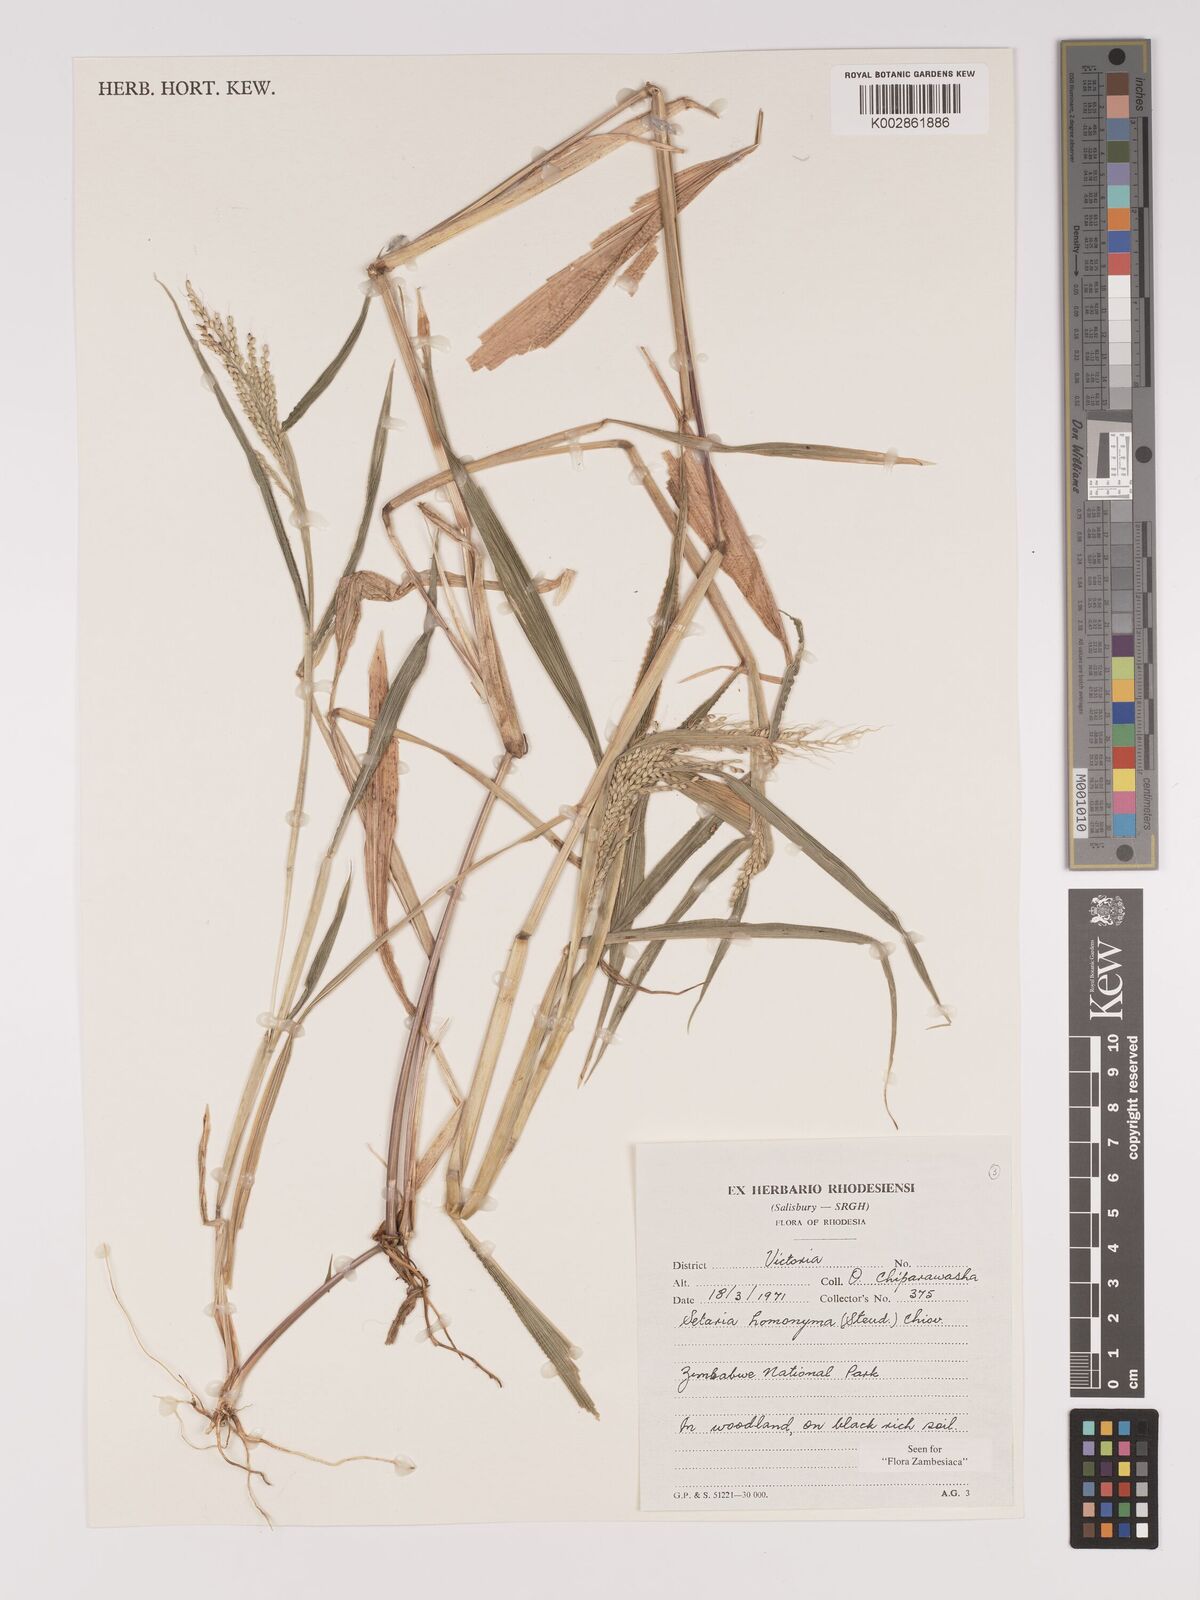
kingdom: Plantae
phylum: Tracheophyta
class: Liliopsida
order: Poales
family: Poaceae
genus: Setaria
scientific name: Setaria homonyma
